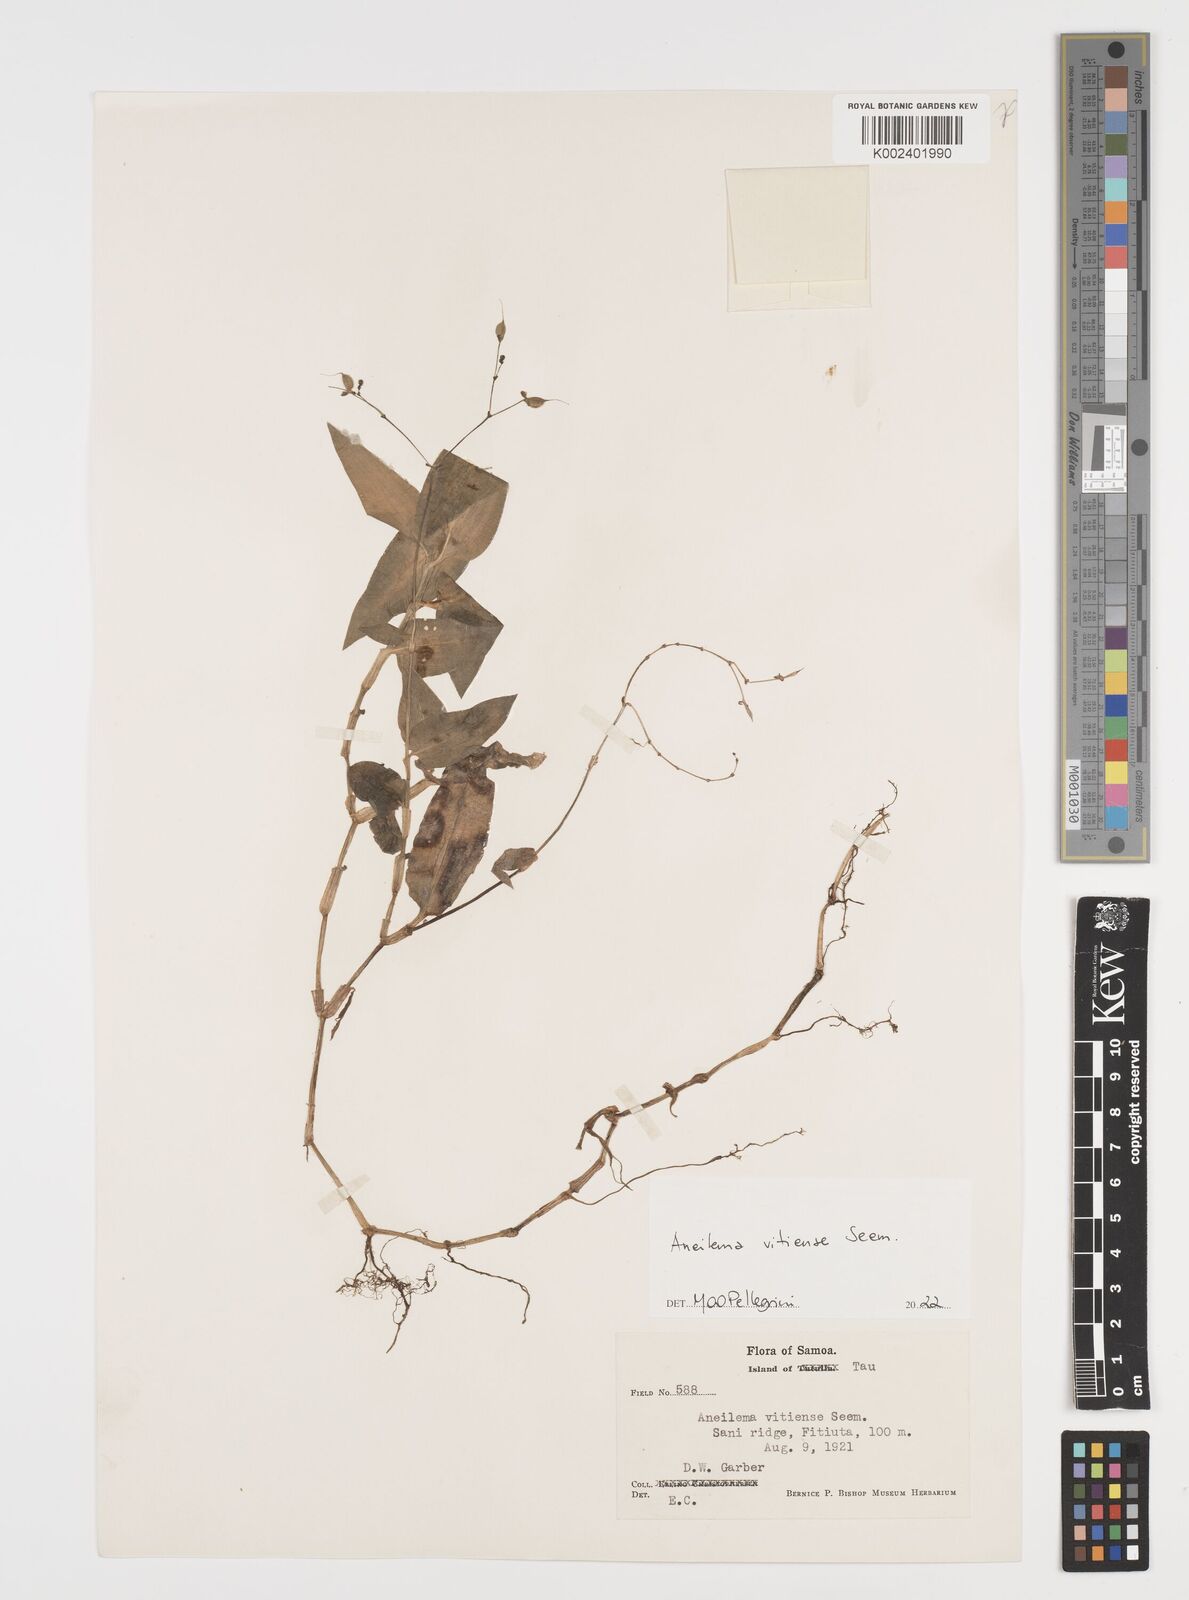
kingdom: Plantae
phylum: Tracheophyta
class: Liliopsida
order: Commelinales
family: Commelinaceae
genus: Rhopalephora
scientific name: Rhopalephora vitiensis
